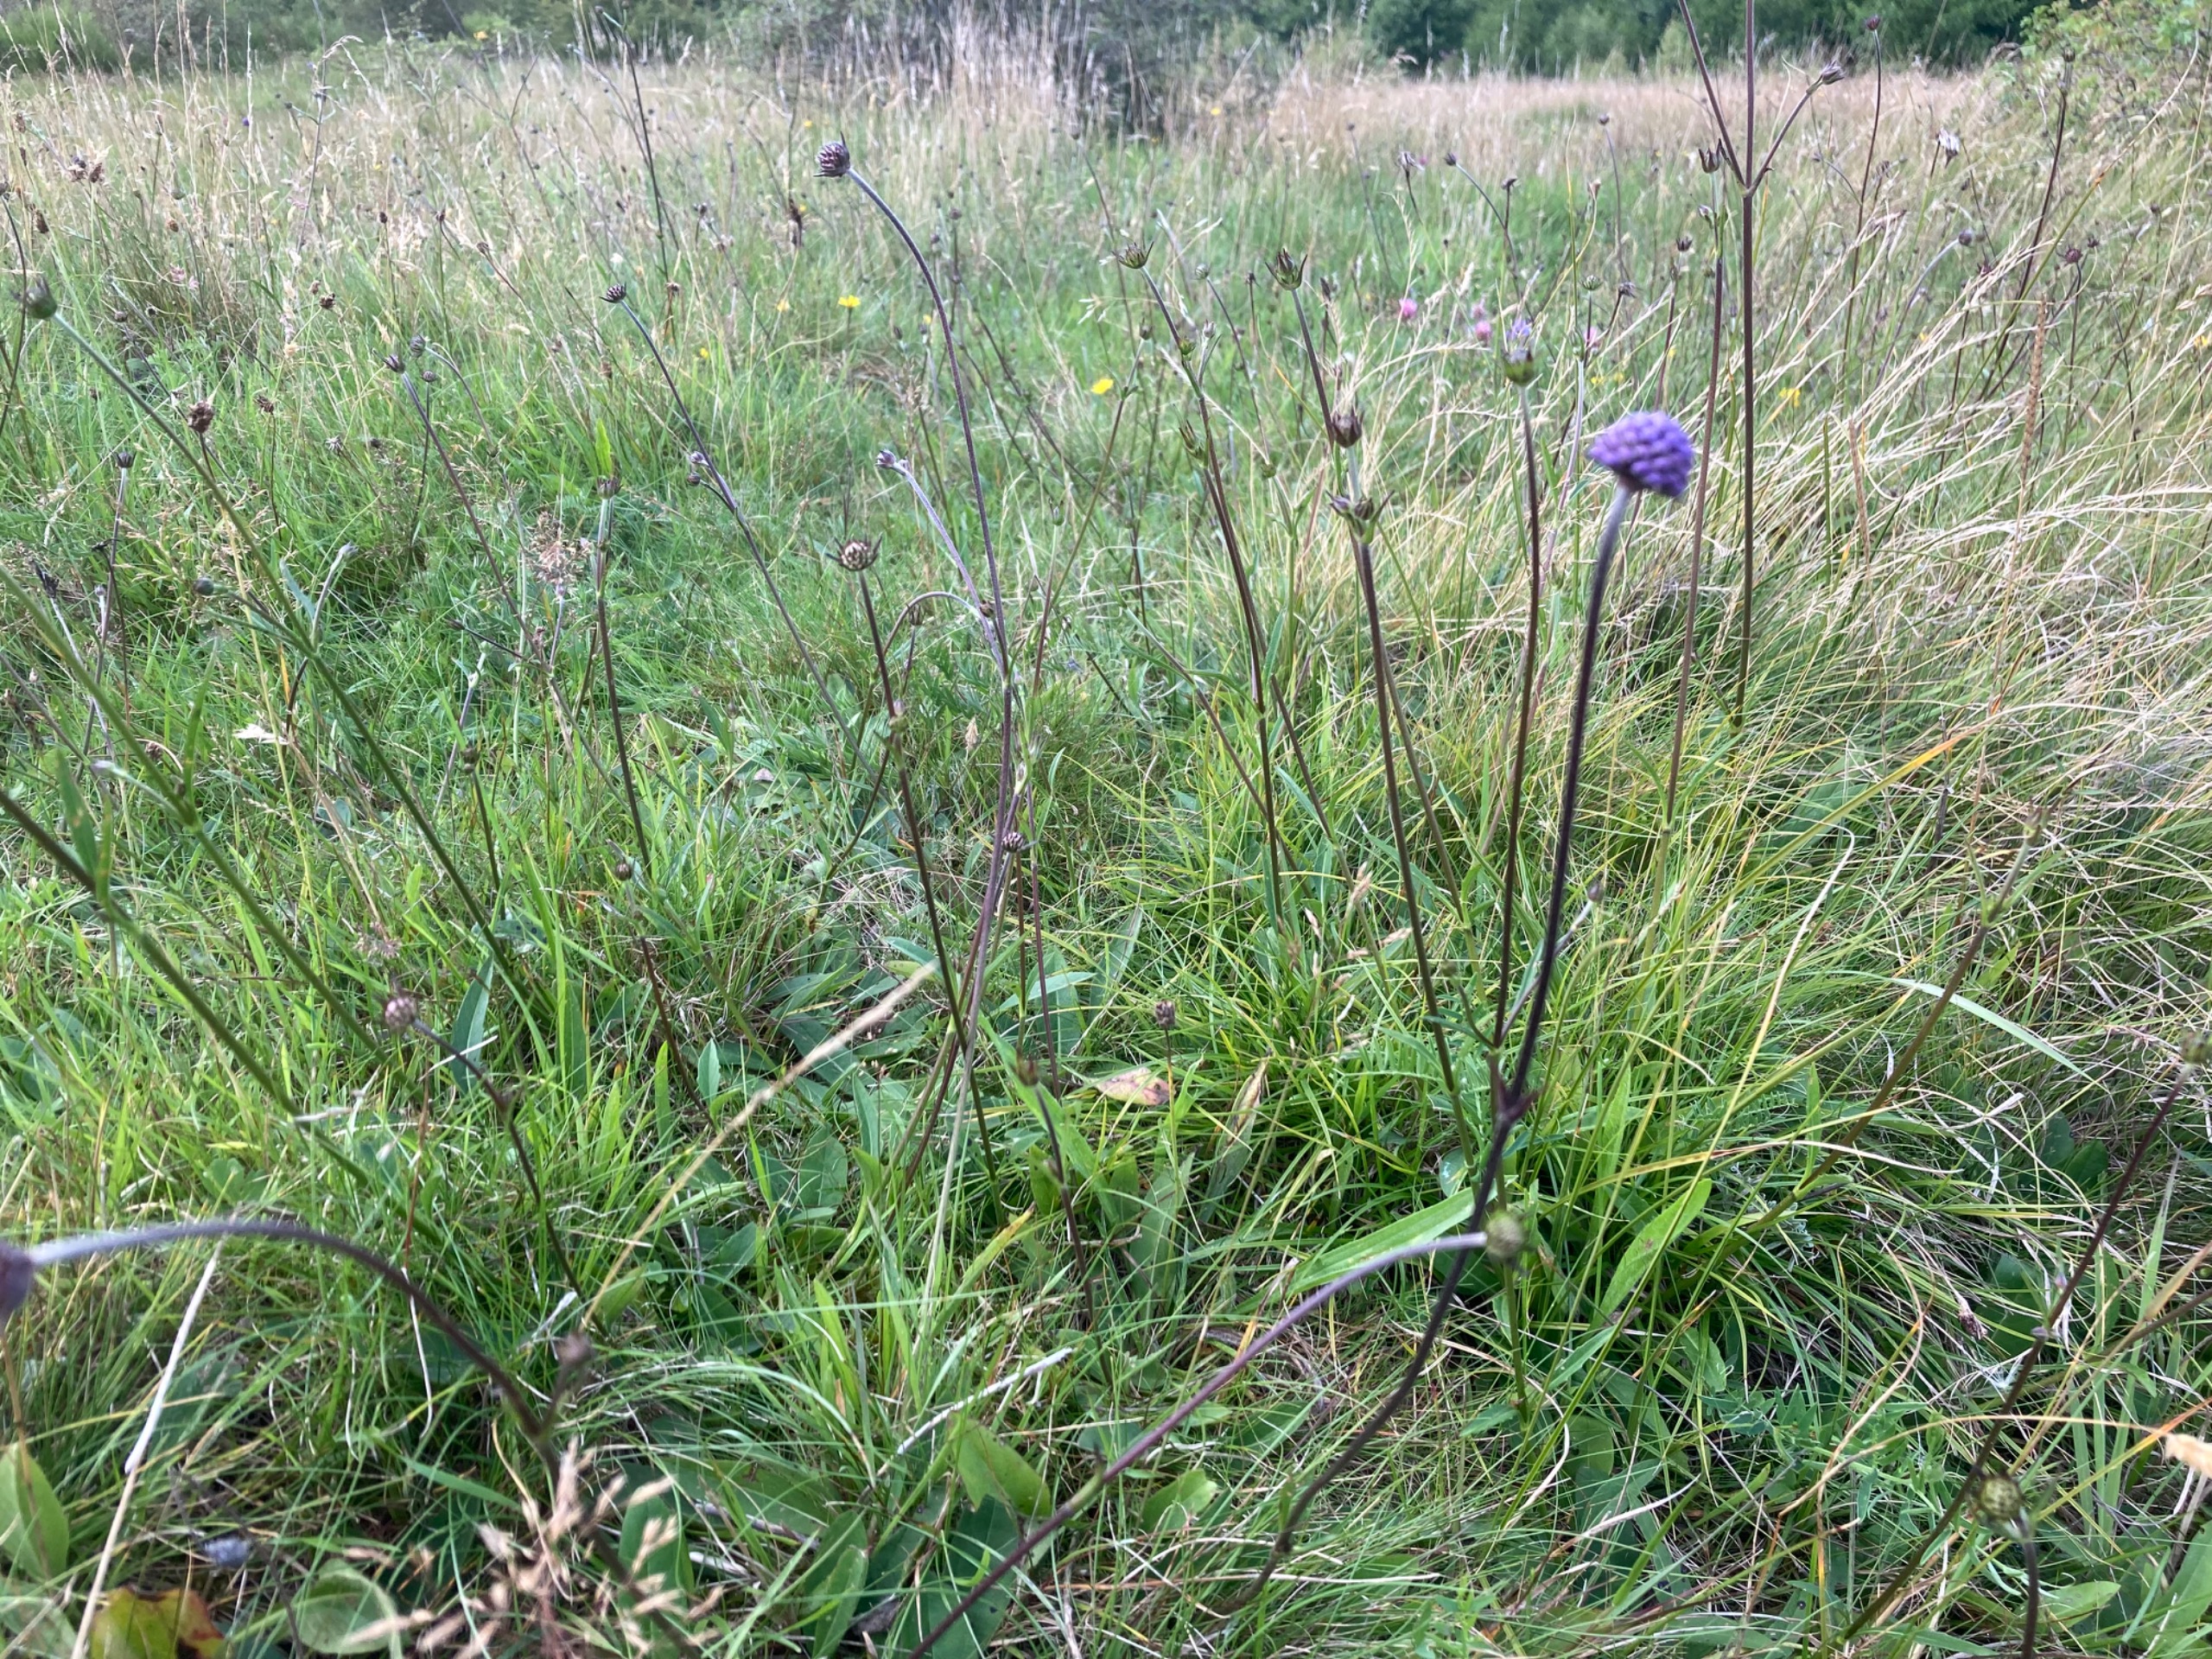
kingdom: Plantae
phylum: Tracheophyta
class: Magnoliopsida
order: Dipsacales
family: Caprifoliaceae
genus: Succisa
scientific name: Succisa pratensis
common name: Djævelsbid
